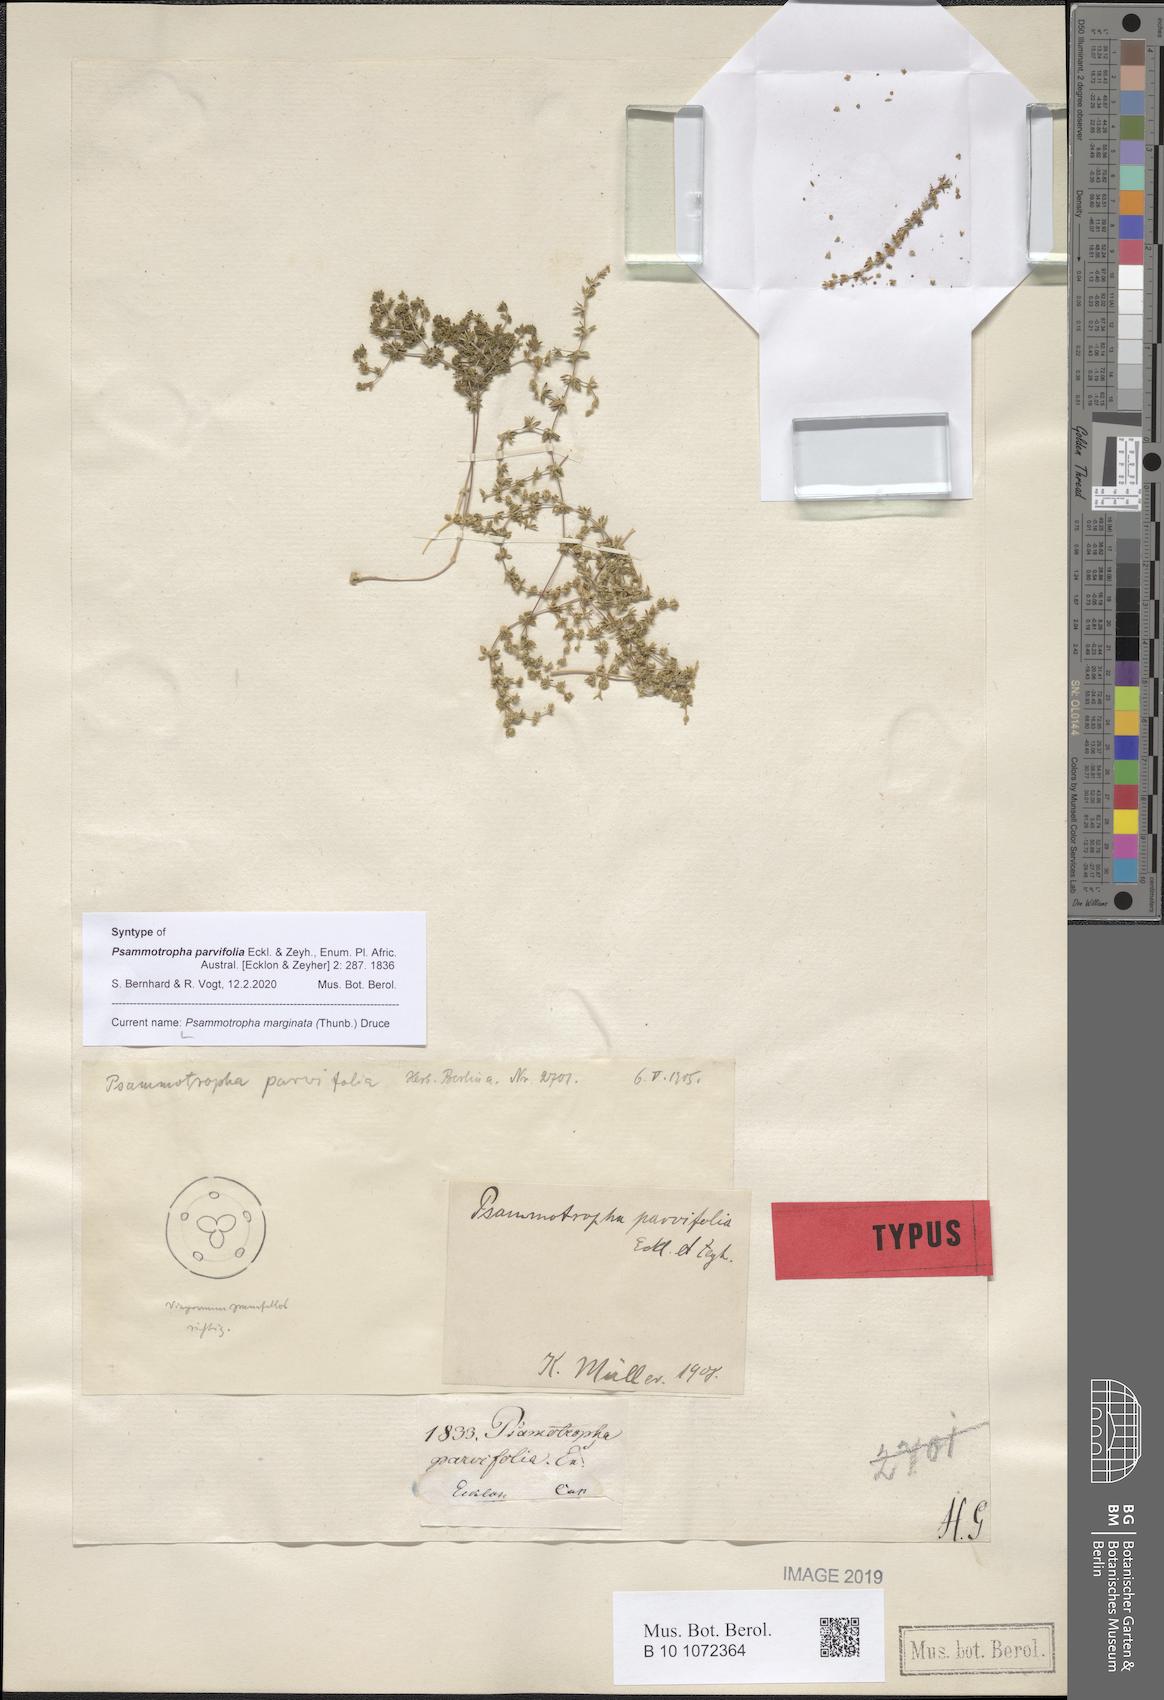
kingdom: Plantae
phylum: Tracheophyta
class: Magnoliopsida
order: Caryophyllales
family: Molluginaceae
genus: Psammotropha
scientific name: Psammotropha marginata
